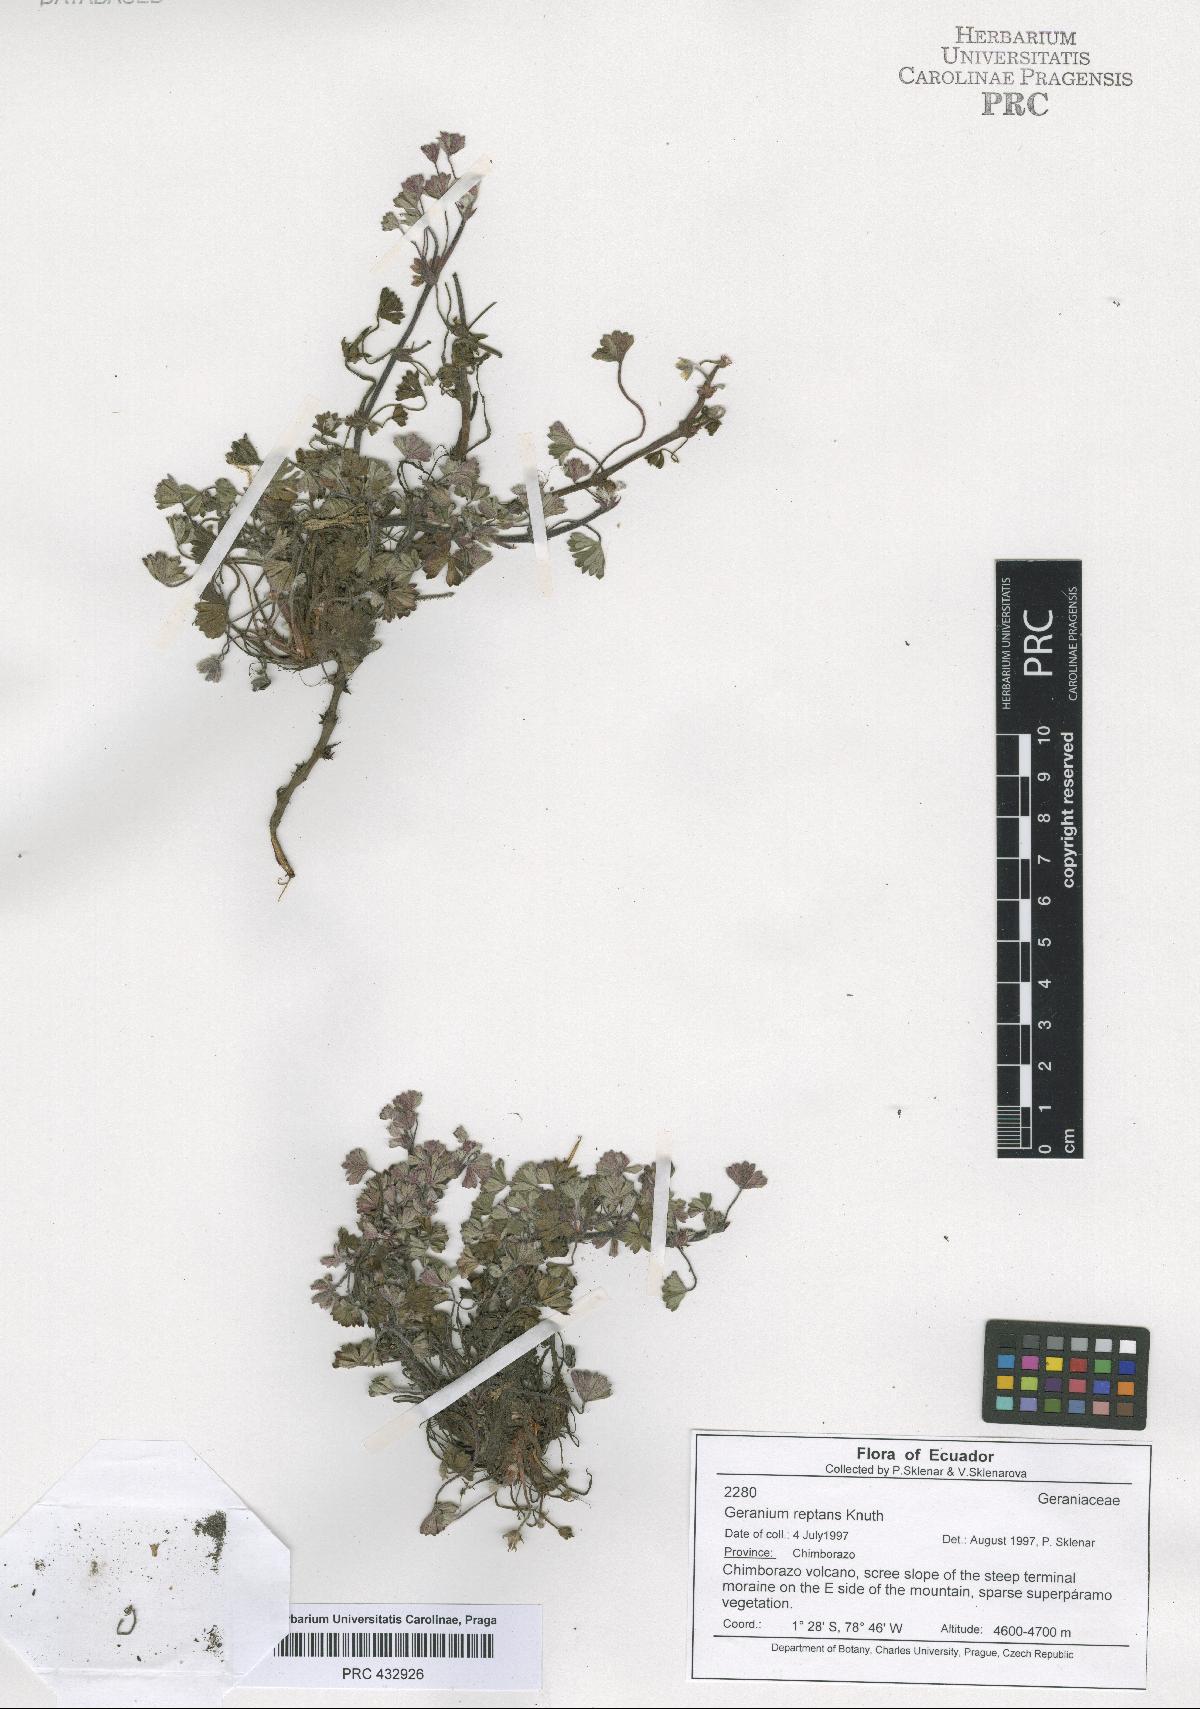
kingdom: Plantae
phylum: Tracheophyta
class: Magnoliopsida
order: Geraniales
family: Geraniaceae
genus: Geranium
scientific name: Geranium reptans
